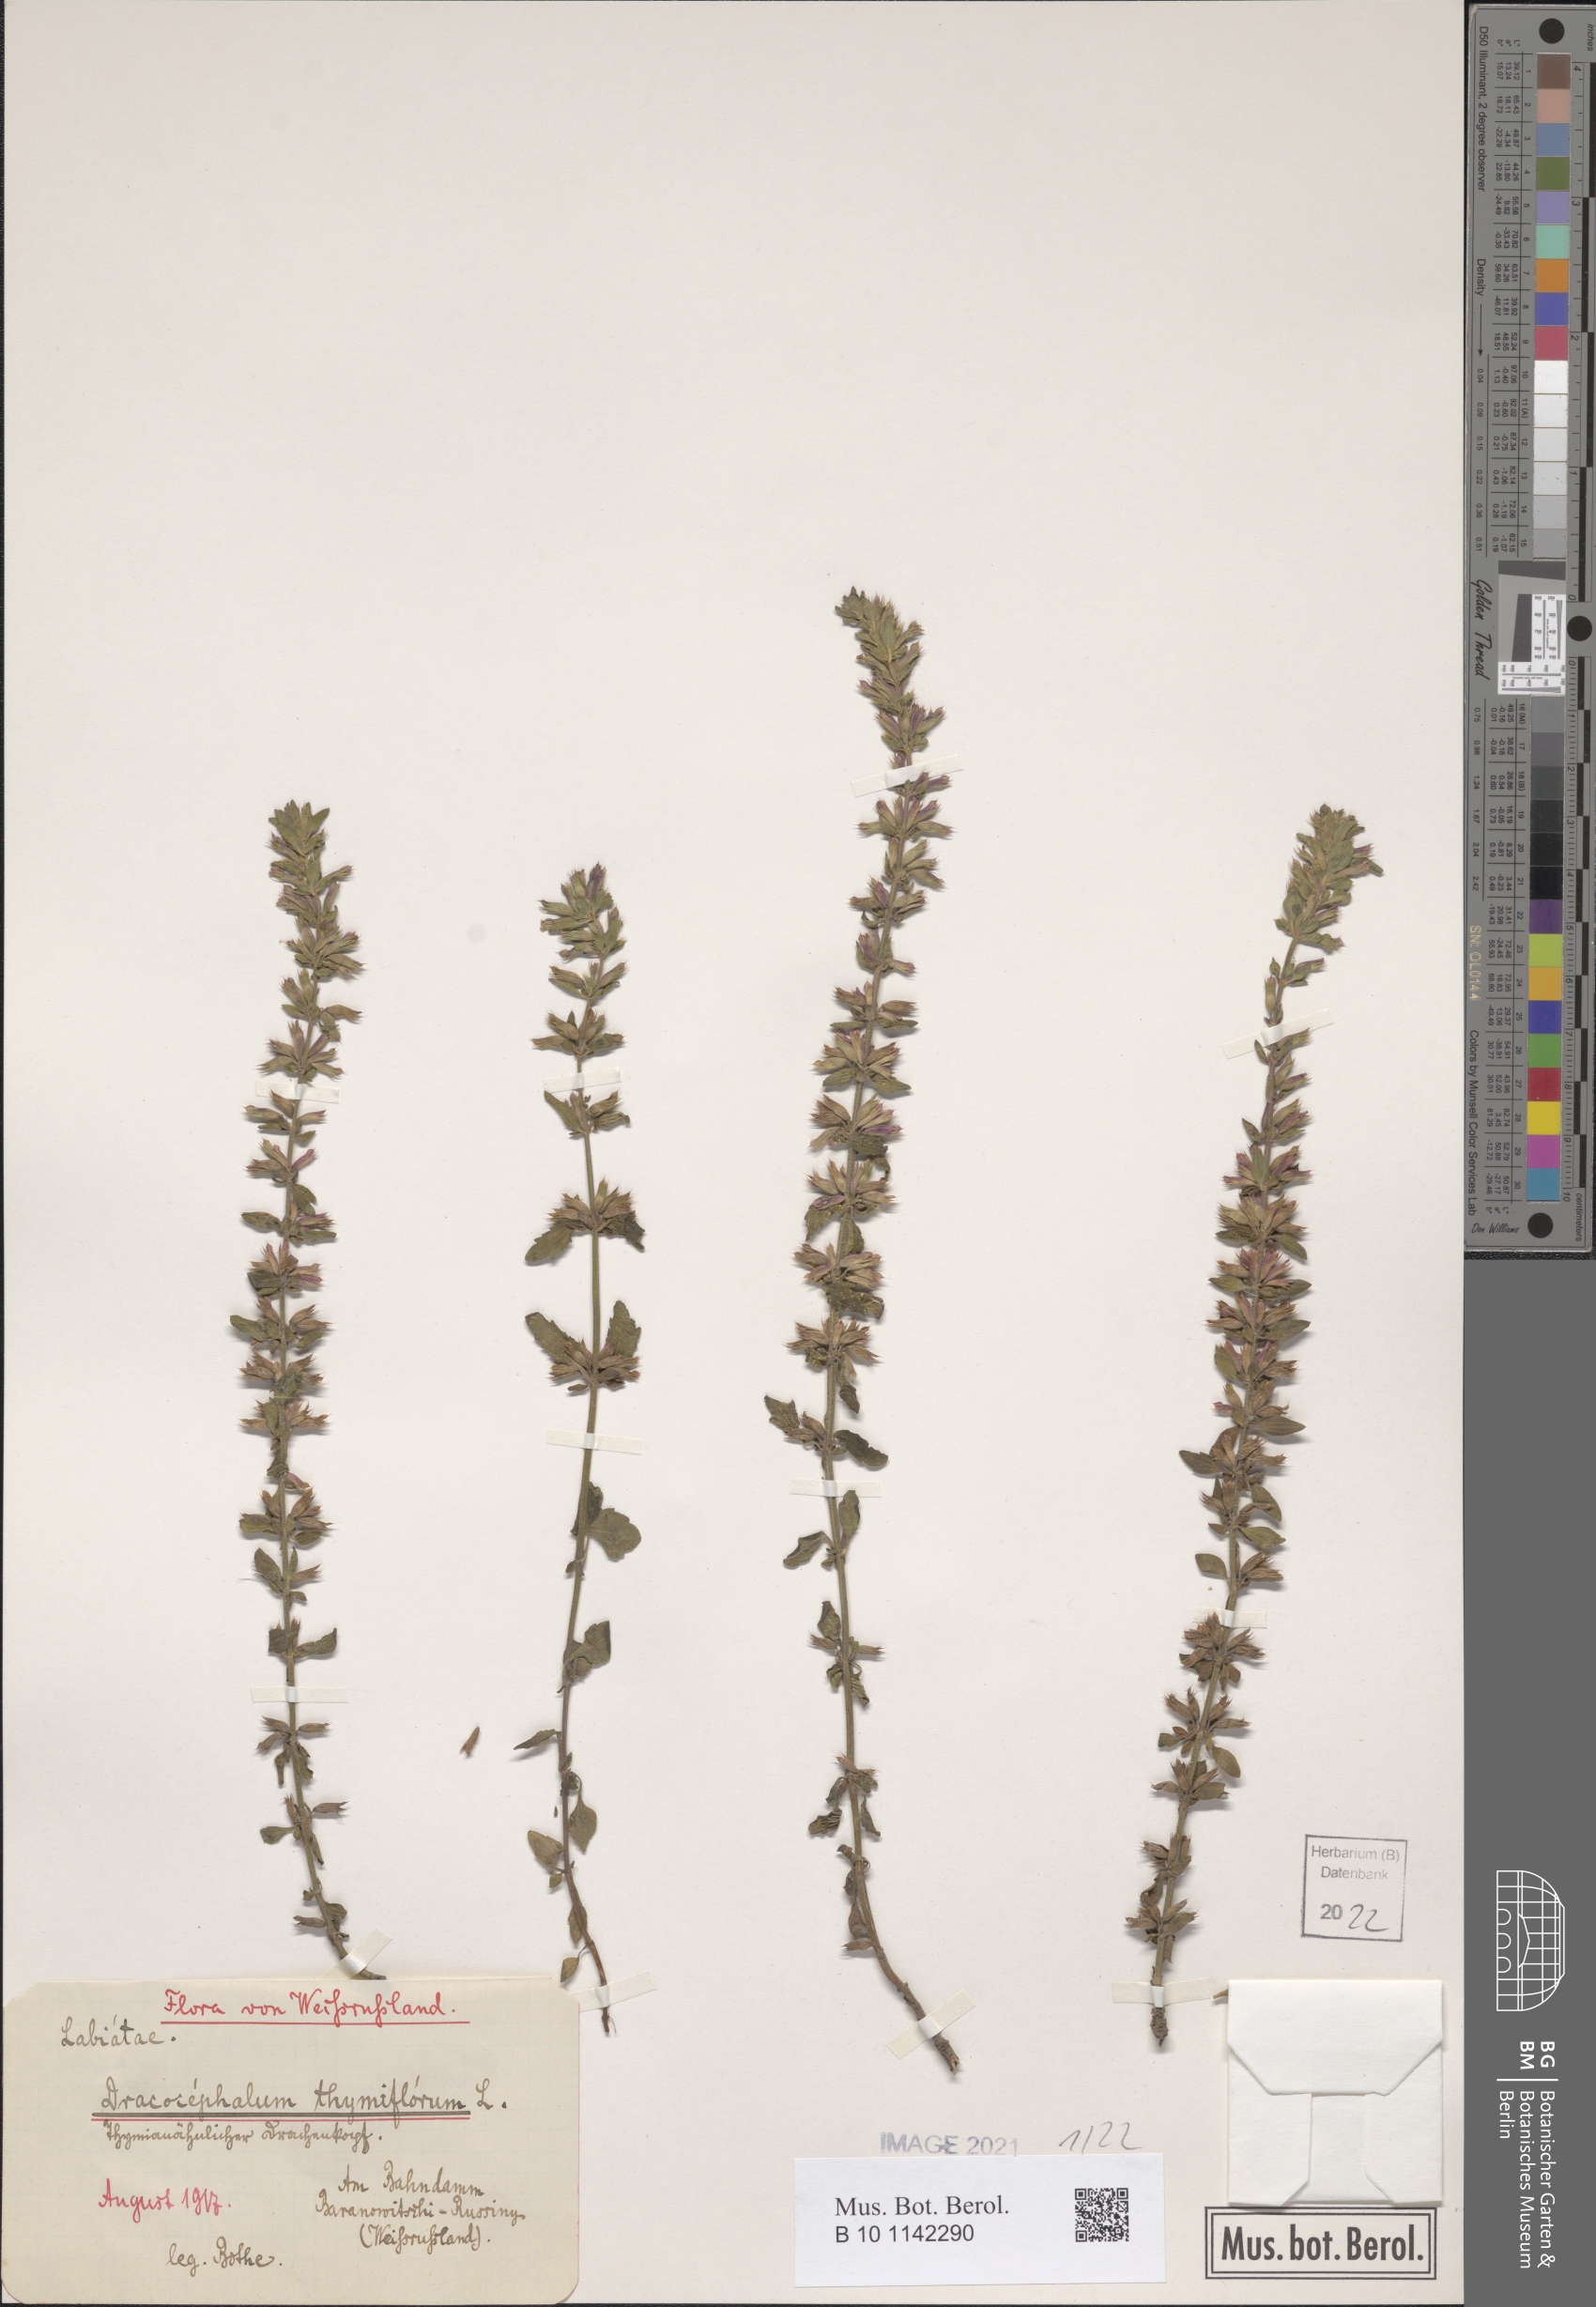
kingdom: Plantae
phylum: Tracheophyta
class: Magnoliopsida
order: Lamiales
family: Lamiaceae
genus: Dracocephalum
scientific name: Dracocephalum thymiflorum
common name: Thymeleaf dragonhead
